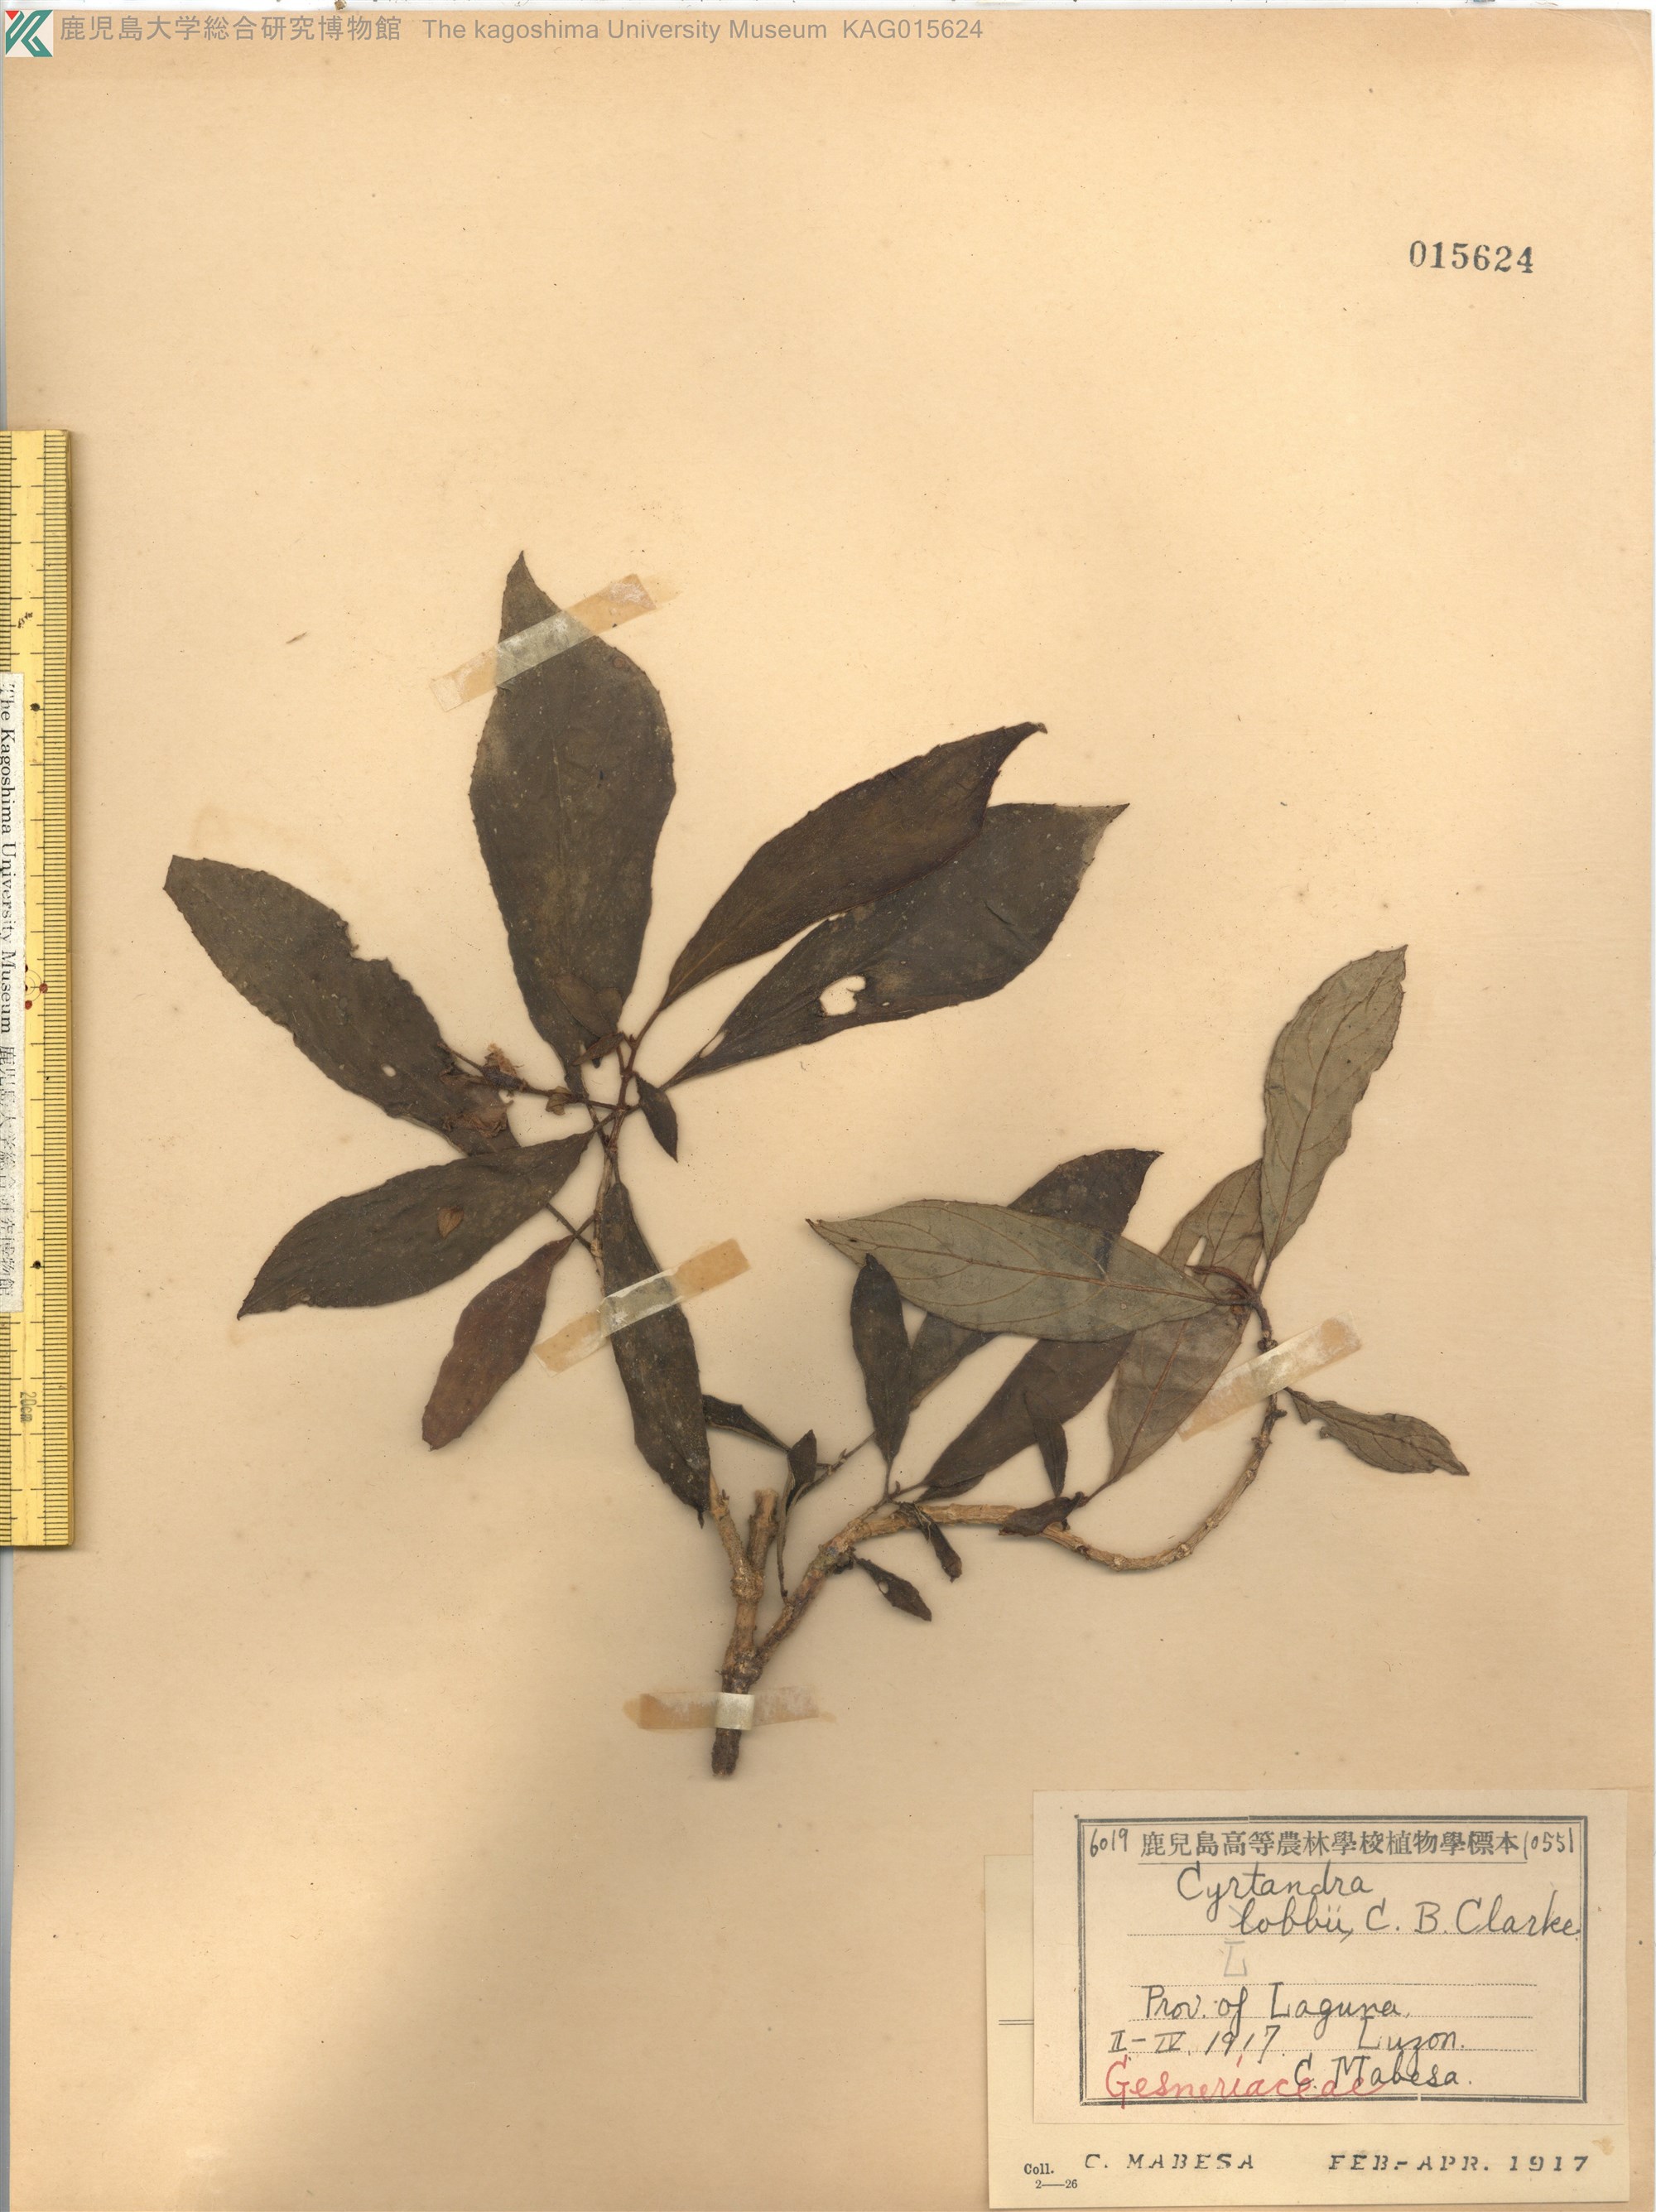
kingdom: Plantae
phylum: Tracheophyta
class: Magnoliopsida
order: Lamiales
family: Gesneriaceae
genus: Cyrtandra
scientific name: Cyrtandra lobbii
